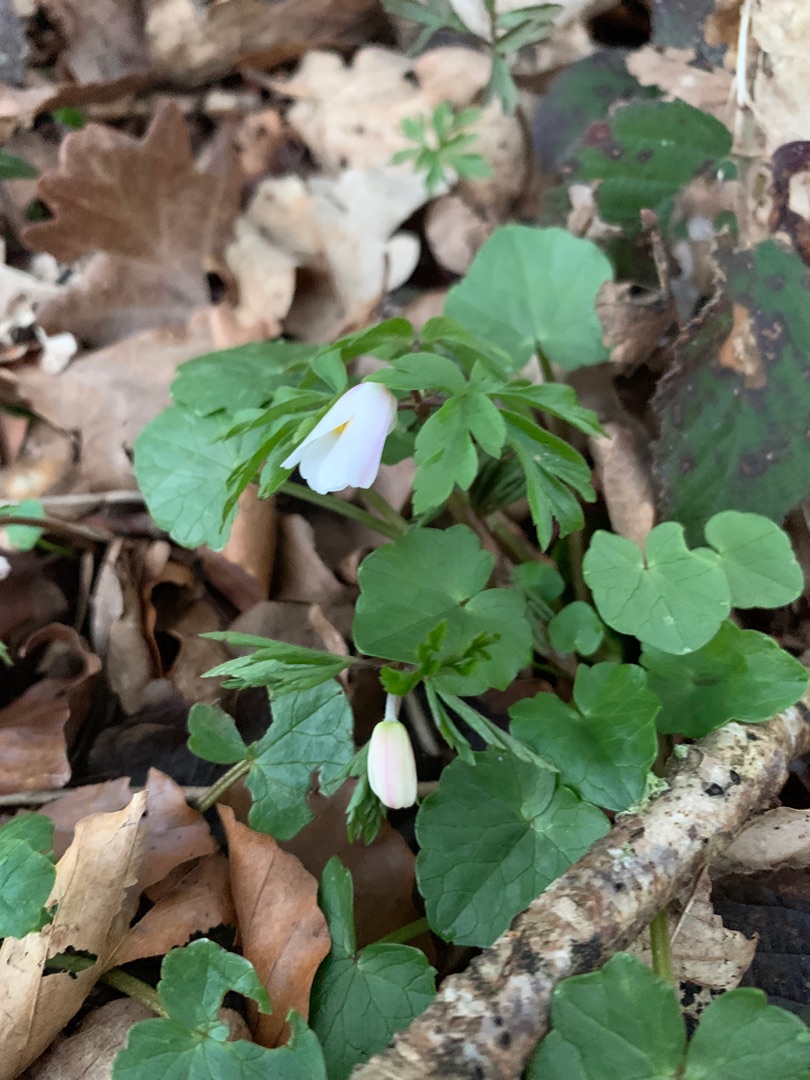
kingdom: Plantae
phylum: Tracheophyta
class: Magnoliopsida
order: Ranunculales
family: Ranunculaceae
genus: Anemone
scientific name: Anemone nemorosa
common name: Hvid anemone
